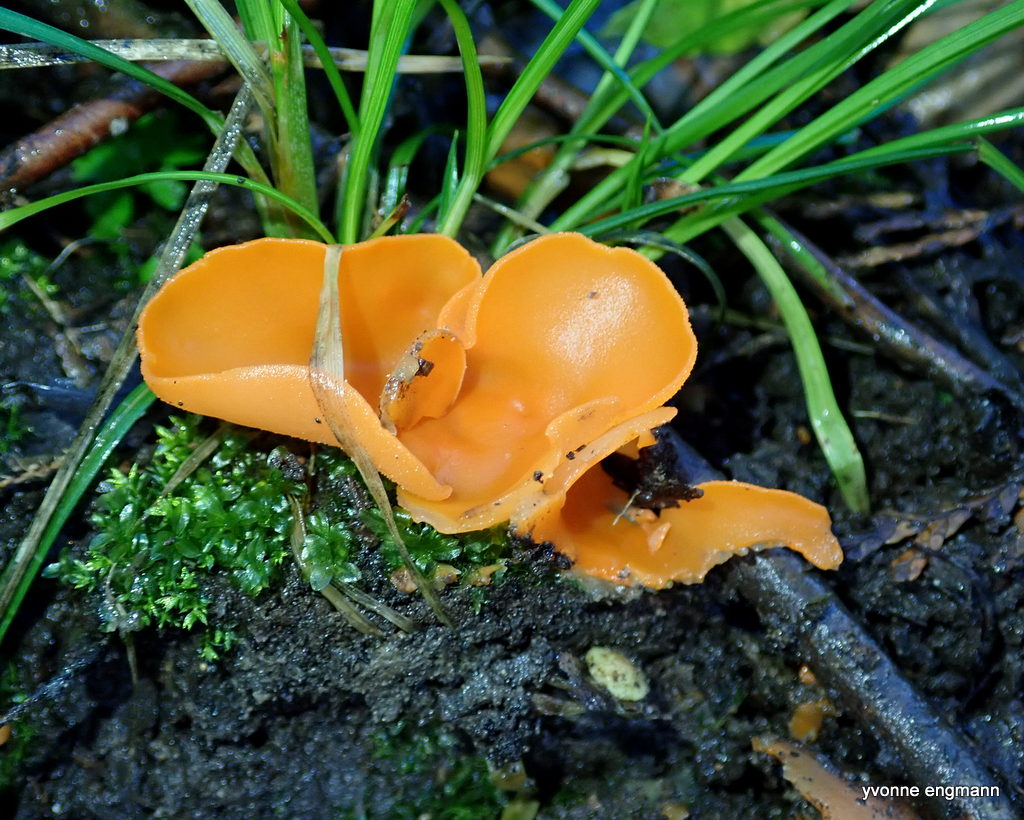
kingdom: Fungi
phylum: Ascomycota
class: Pezizomycetes
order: Pezizales
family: Pyronemataceae
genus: Aleuria
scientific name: Aleuria aurantia
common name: almindelig orangebæger
